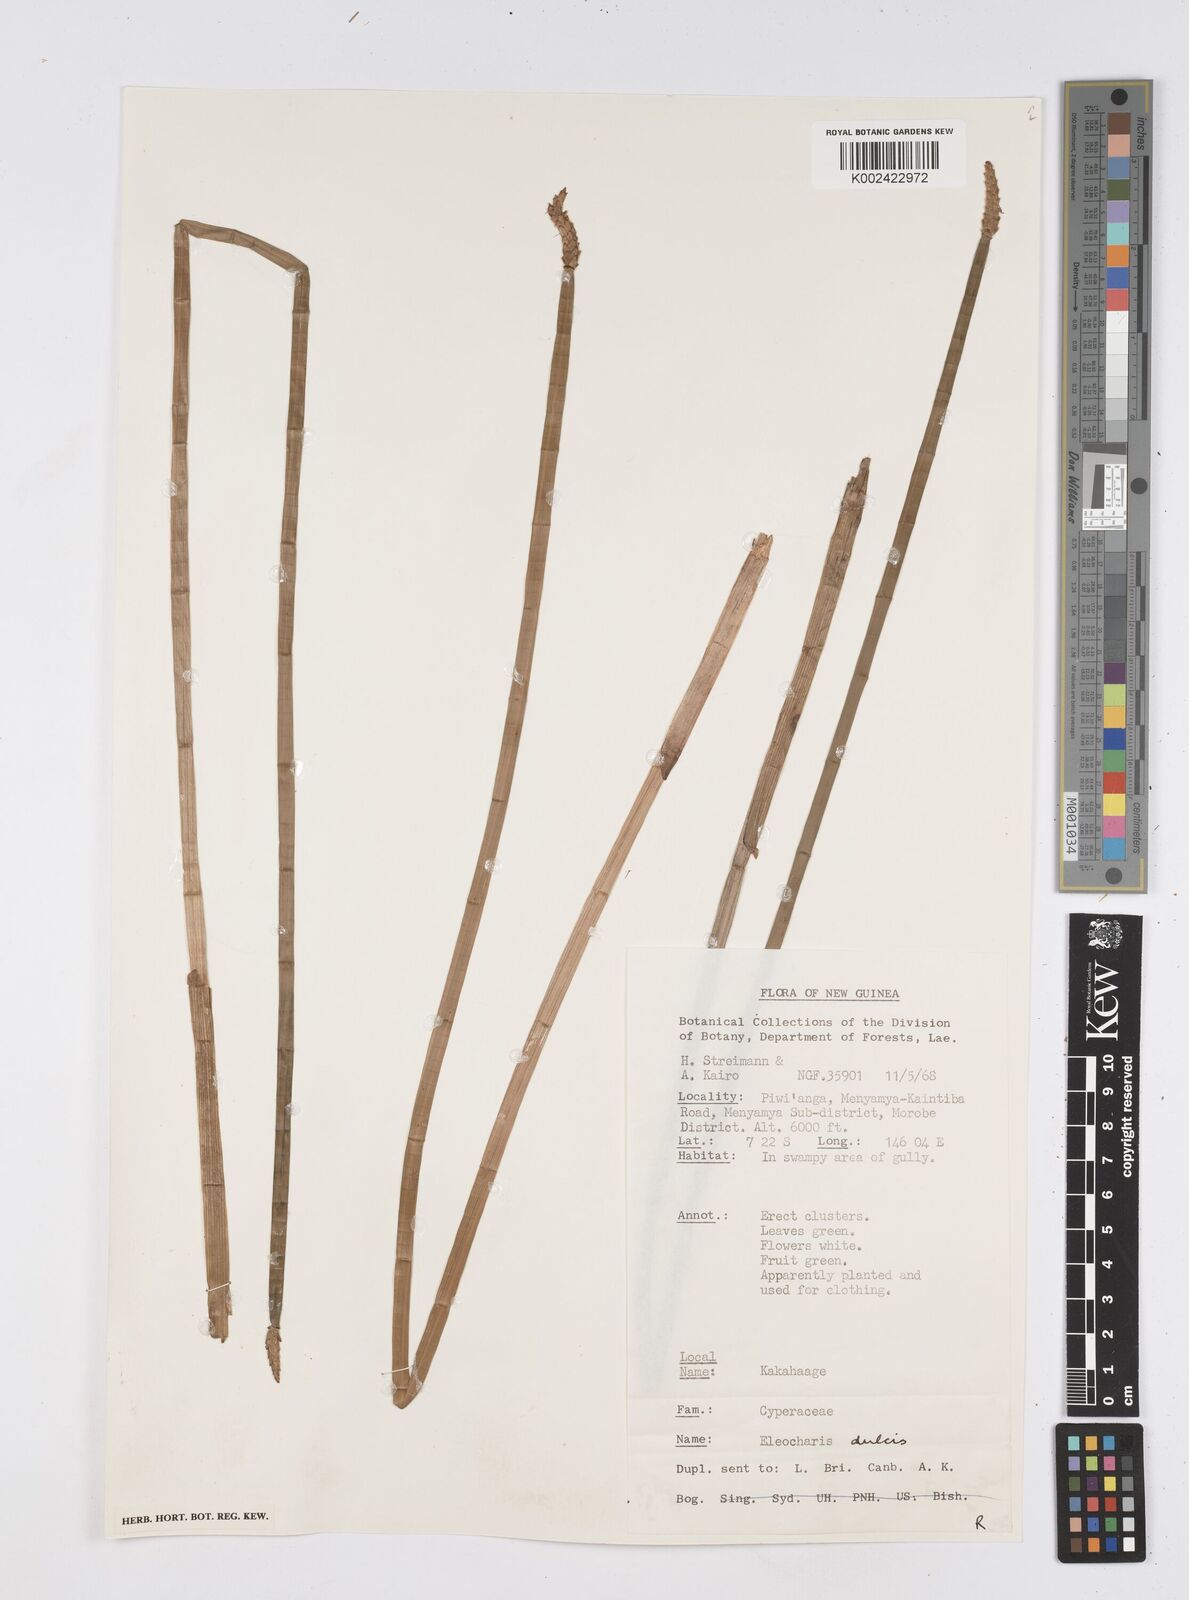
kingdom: Plantae
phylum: Tracheophyta
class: Liliopsida
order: Poales
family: Cyperaceae
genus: Eleocharis
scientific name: Eleocharis dulcis
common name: Chinese water chestnut
